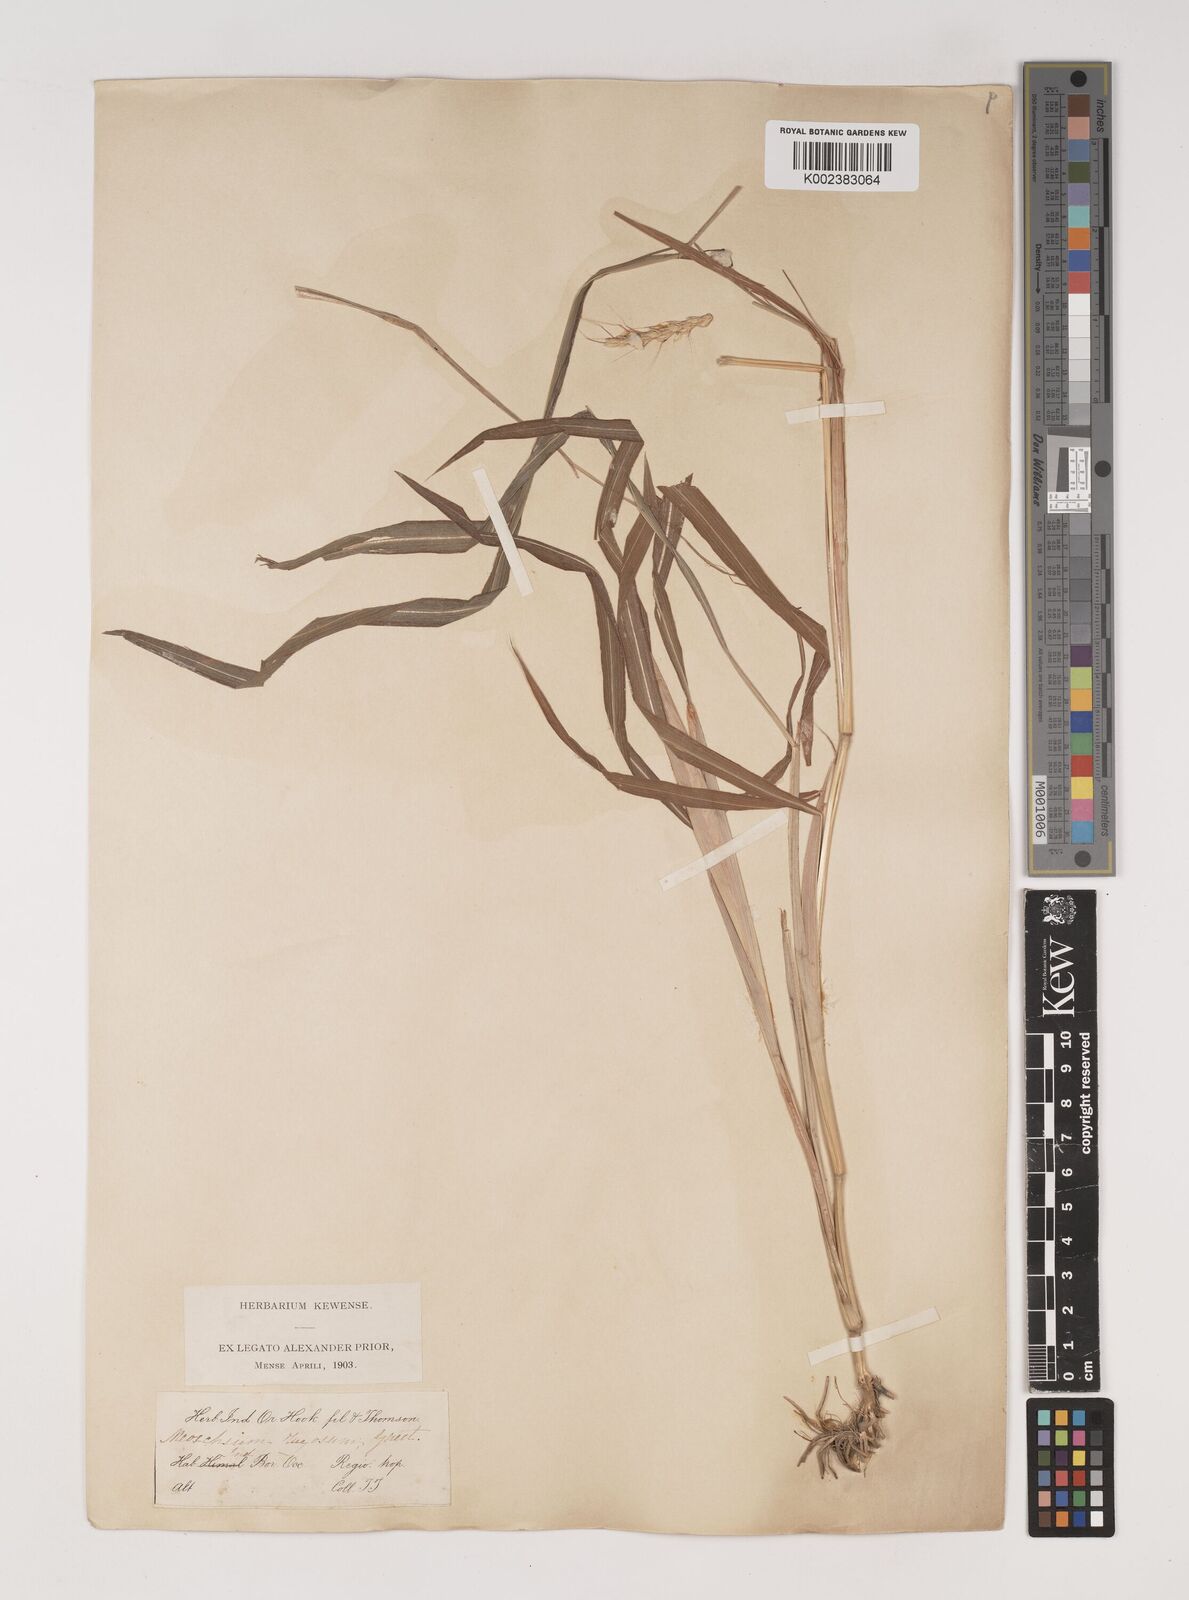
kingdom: Plantae
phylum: Tracheophyta
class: Liliopsida
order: Poales
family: Poaceae
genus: Ischaemum
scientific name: Ischaemum rugosum
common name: Saramatta grass
